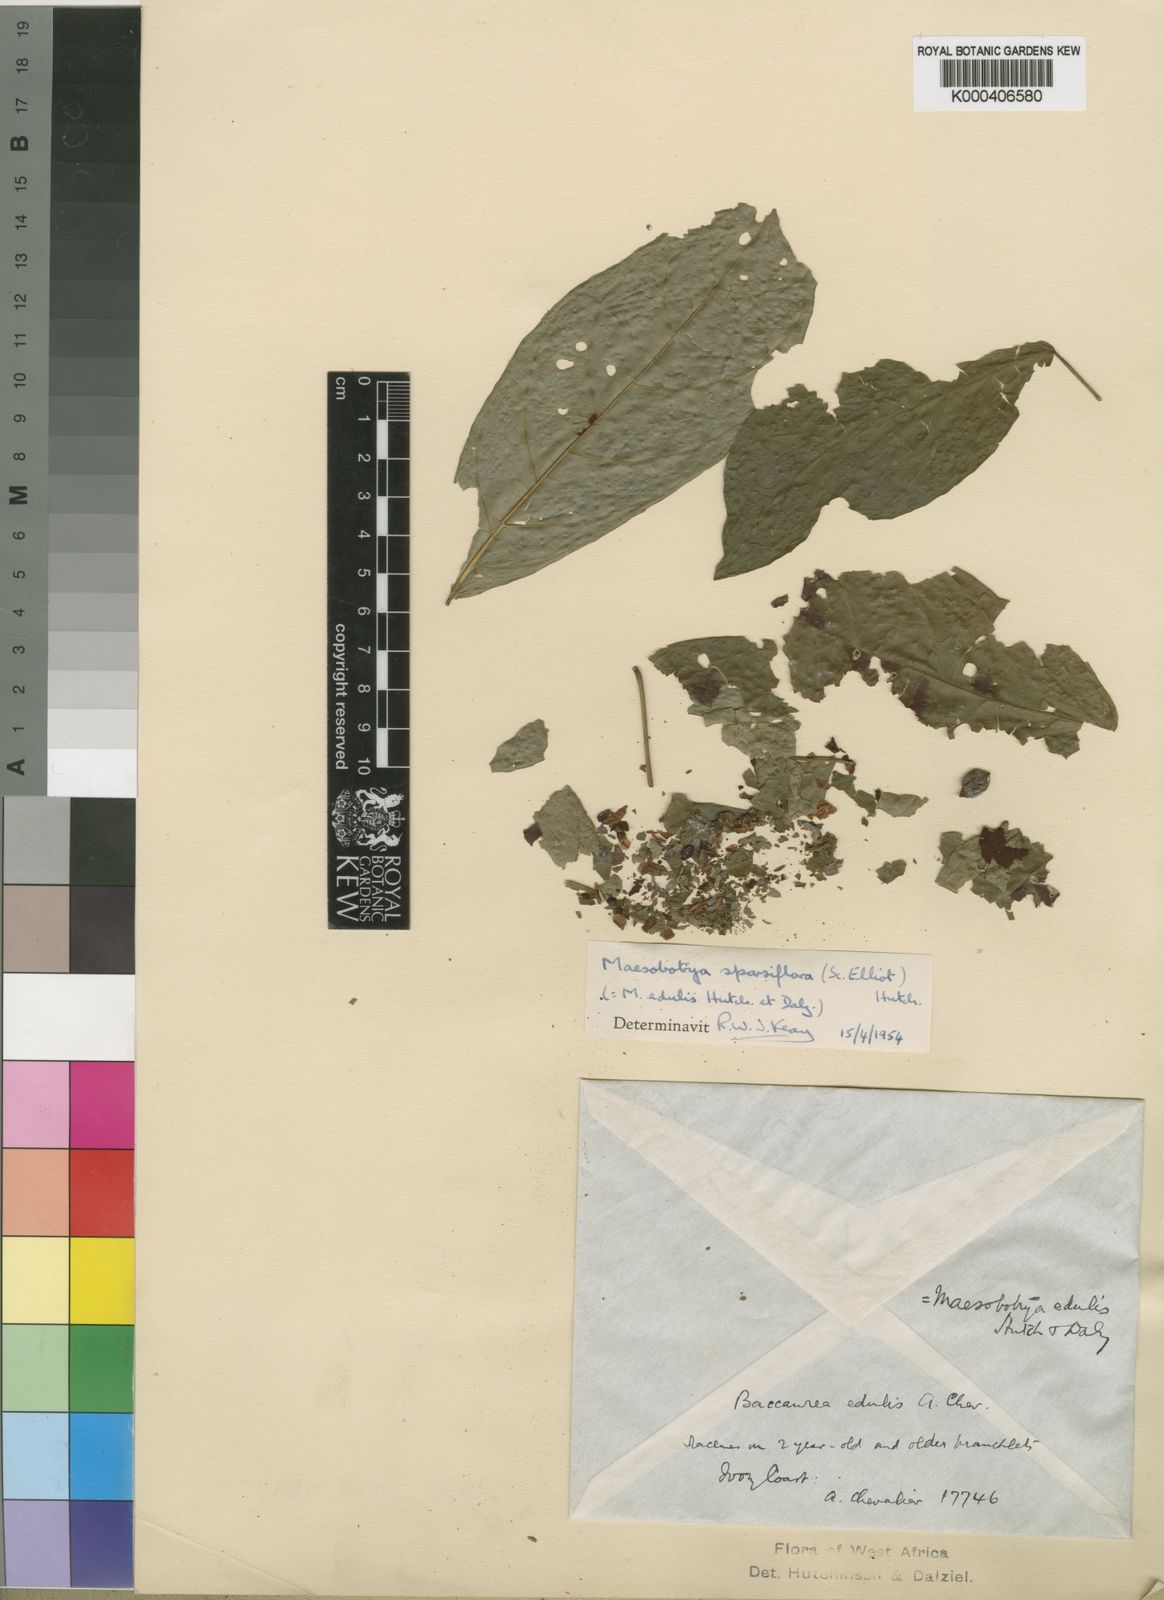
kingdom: Plantae
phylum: Tracheophyta
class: Magnoliopsida
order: Malpighiales
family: Phyllanthaceae
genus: Maesobotrya
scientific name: Maesobotrya barteri
